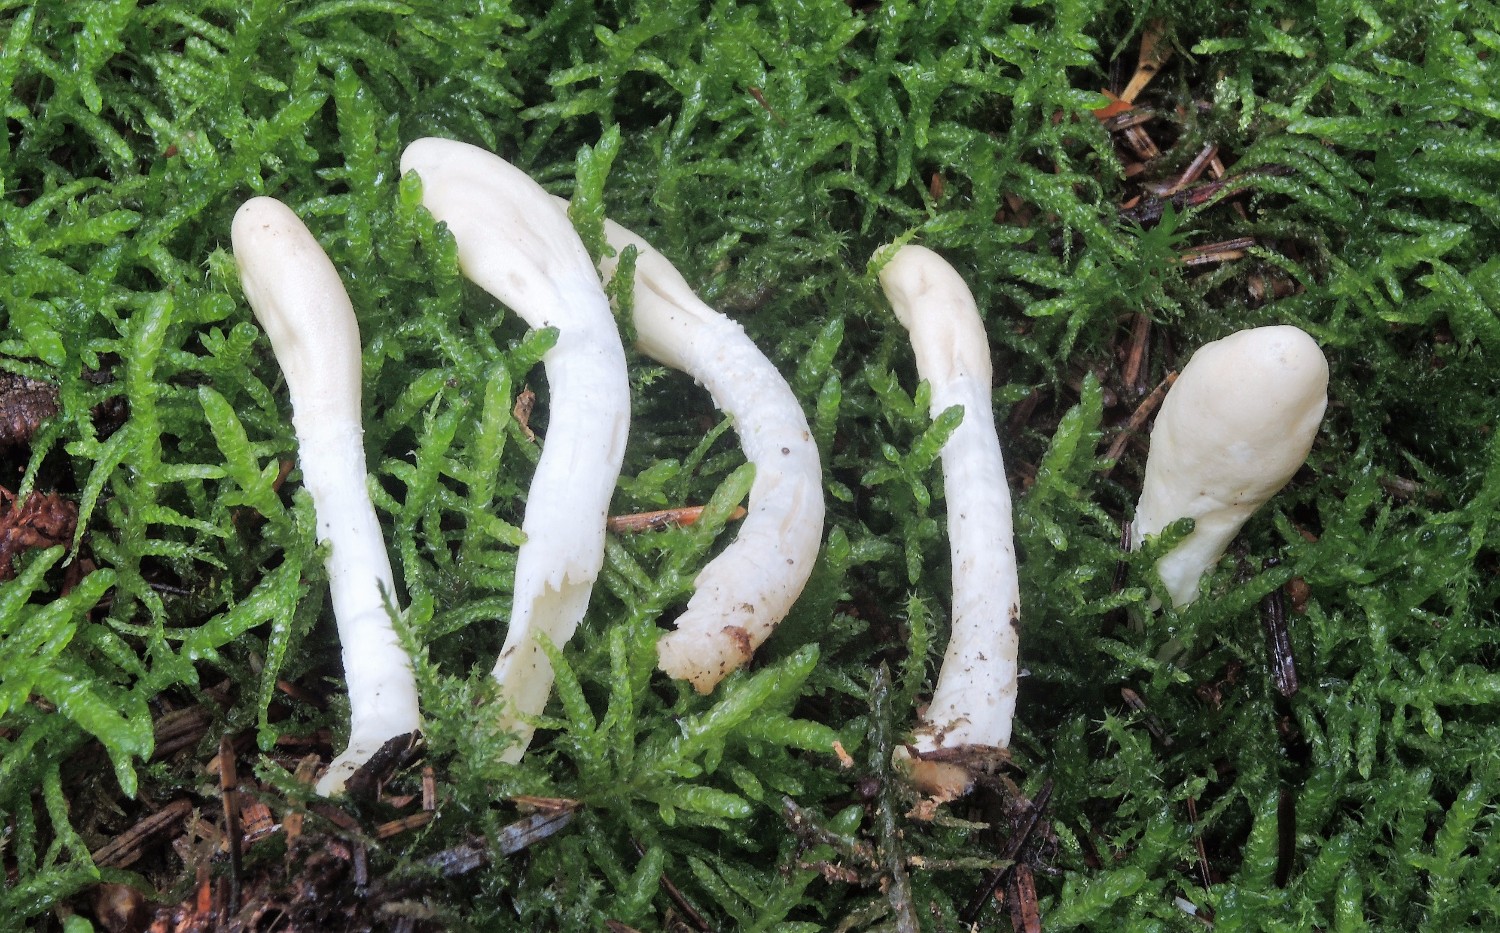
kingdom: Fungi
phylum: Ascomycota
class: Sordariomycetes
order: Hypocreales
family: Hypocreaceae
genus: Trichoderma
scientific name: Trichoderma leucopus
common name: lysstokket kødkerne
